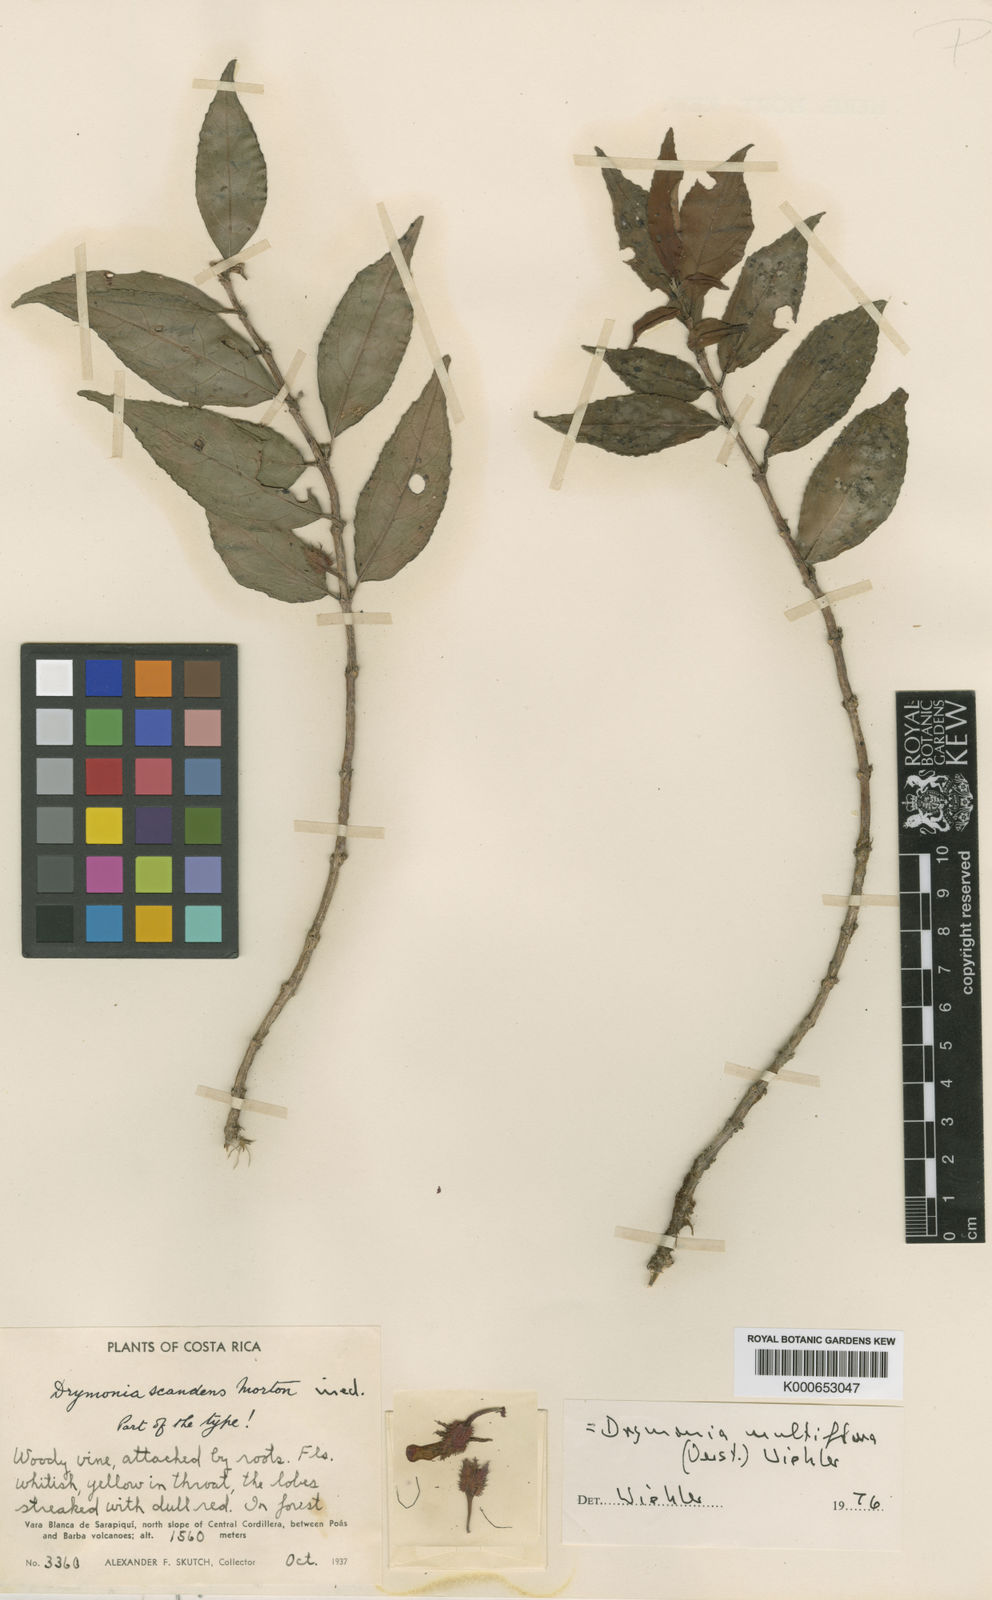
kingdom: Plantae
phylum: Tracheophyta
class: Magnoliopsida
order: Lamiales
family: Gesneriaceae
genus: Drymonia
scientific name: Drymonia
